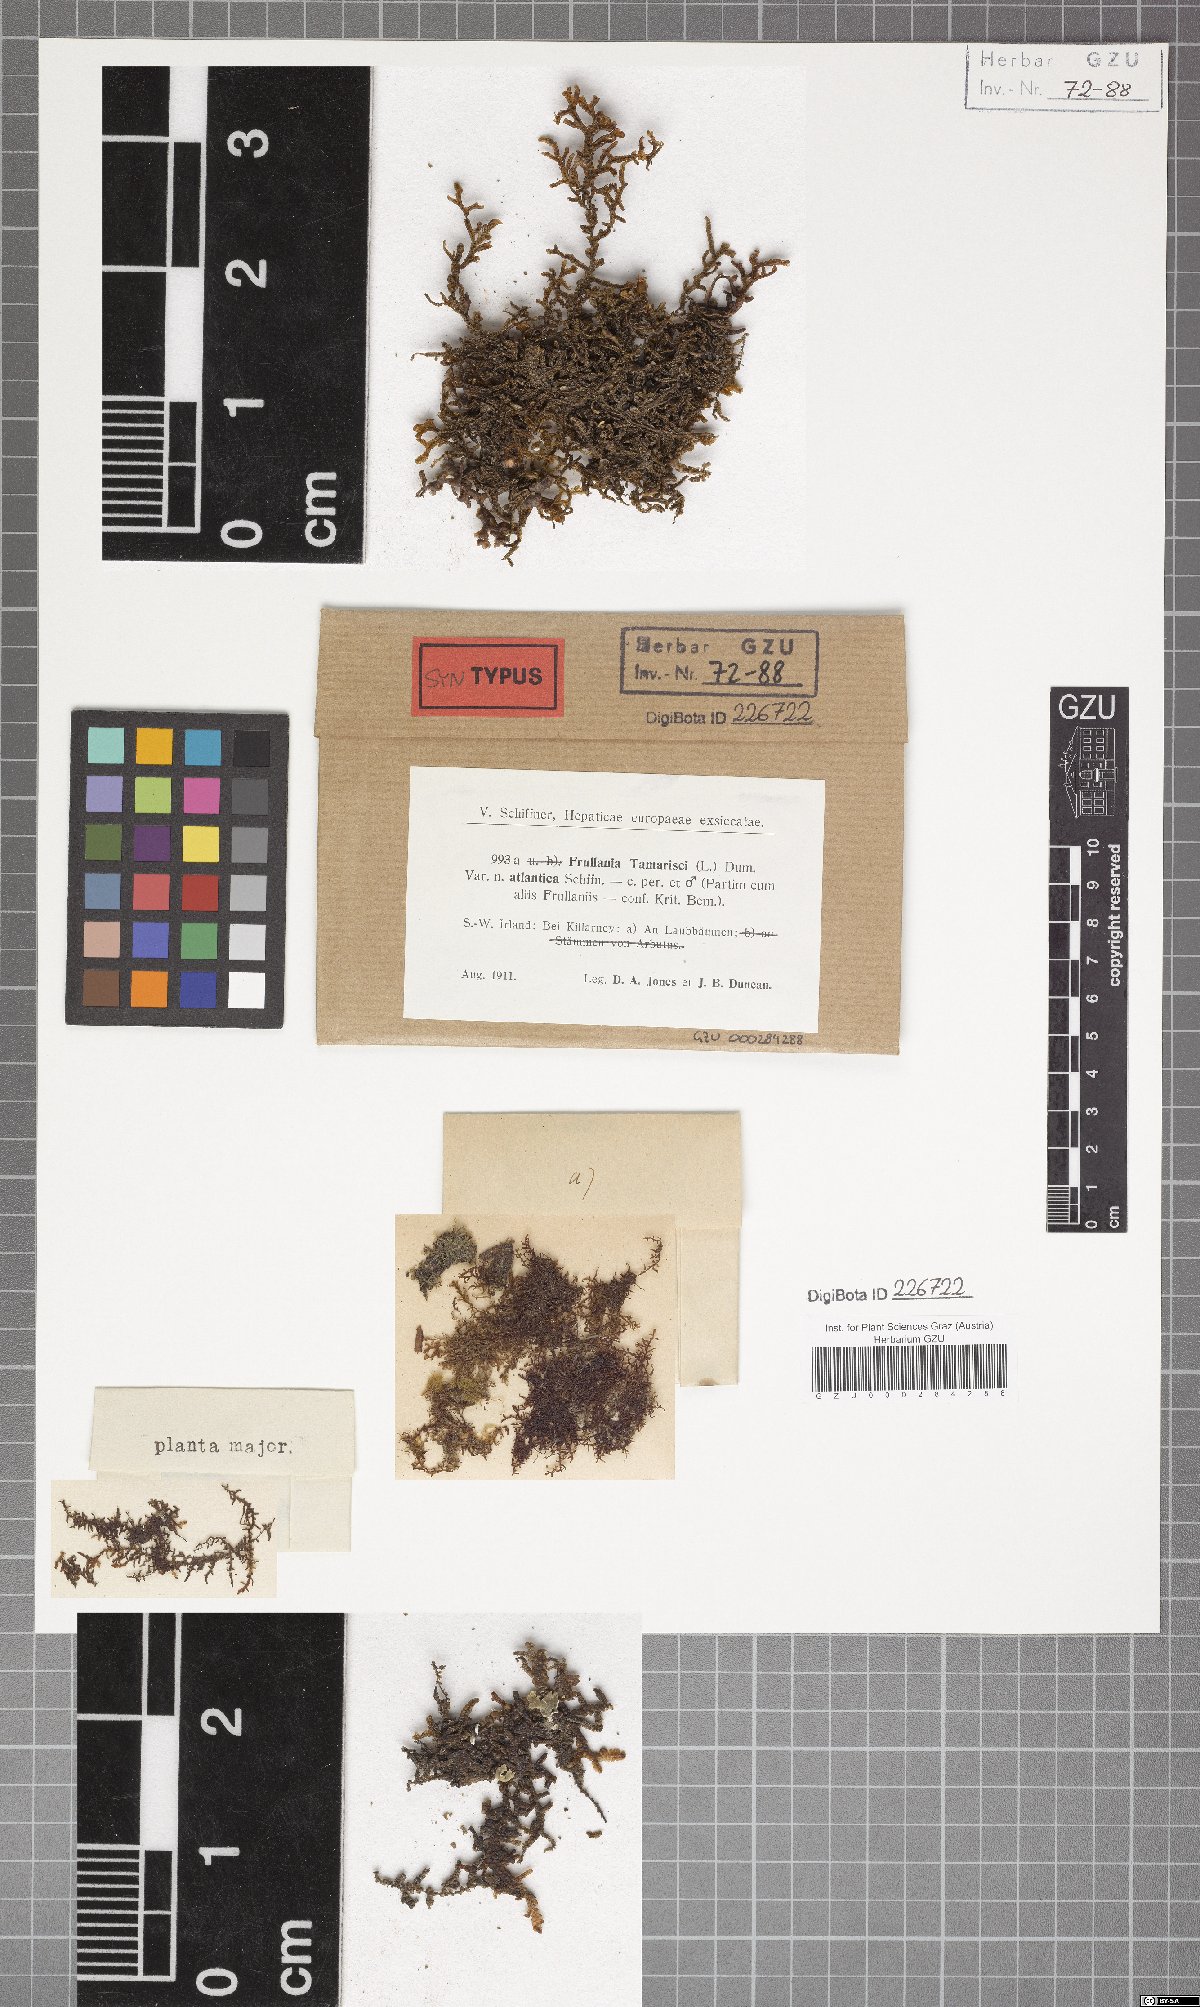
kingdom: Plantae
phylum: Marchantiophyta
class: Jungermanniopsida
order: Porellales
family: Frullaniaceae
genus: Frullania
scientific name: Frullania tamarisci
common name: Tamarisk scalewort
